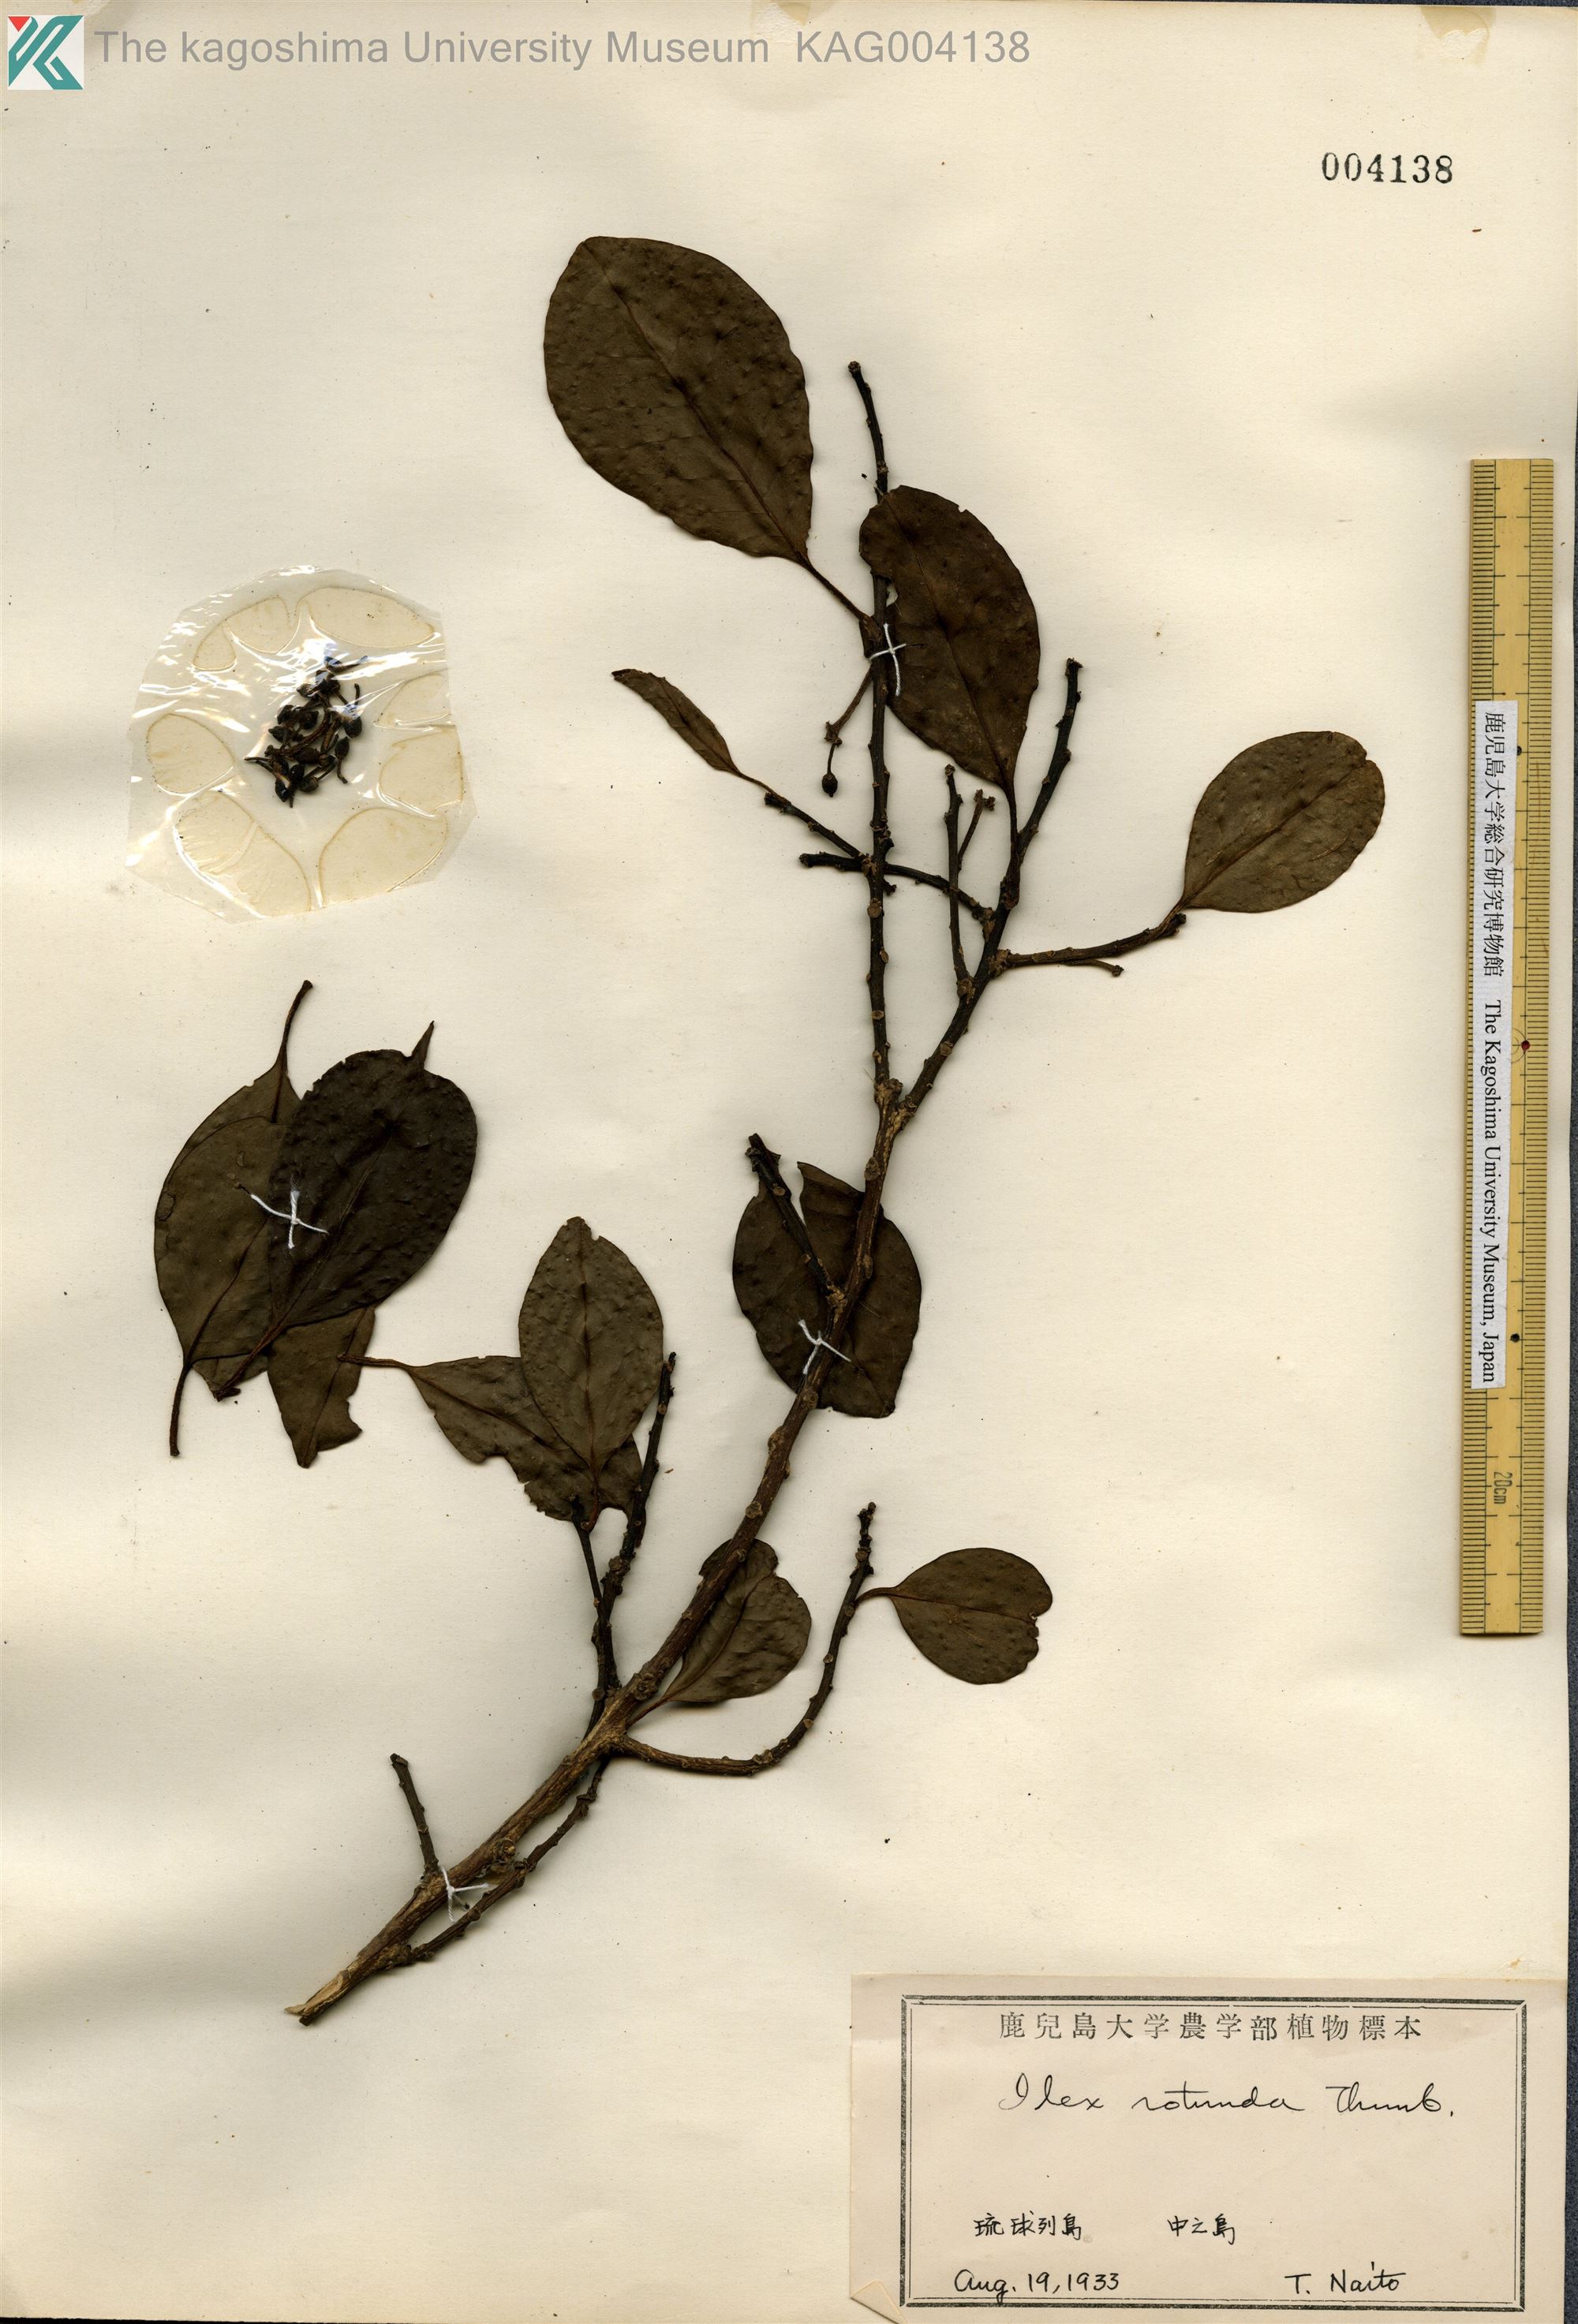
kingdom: Plantae
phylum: Tracheophyta
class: Magnoliopsida
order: Aquifoliales
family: Aquifoliaceae
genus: Ilex
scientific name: Ilex rotunda
